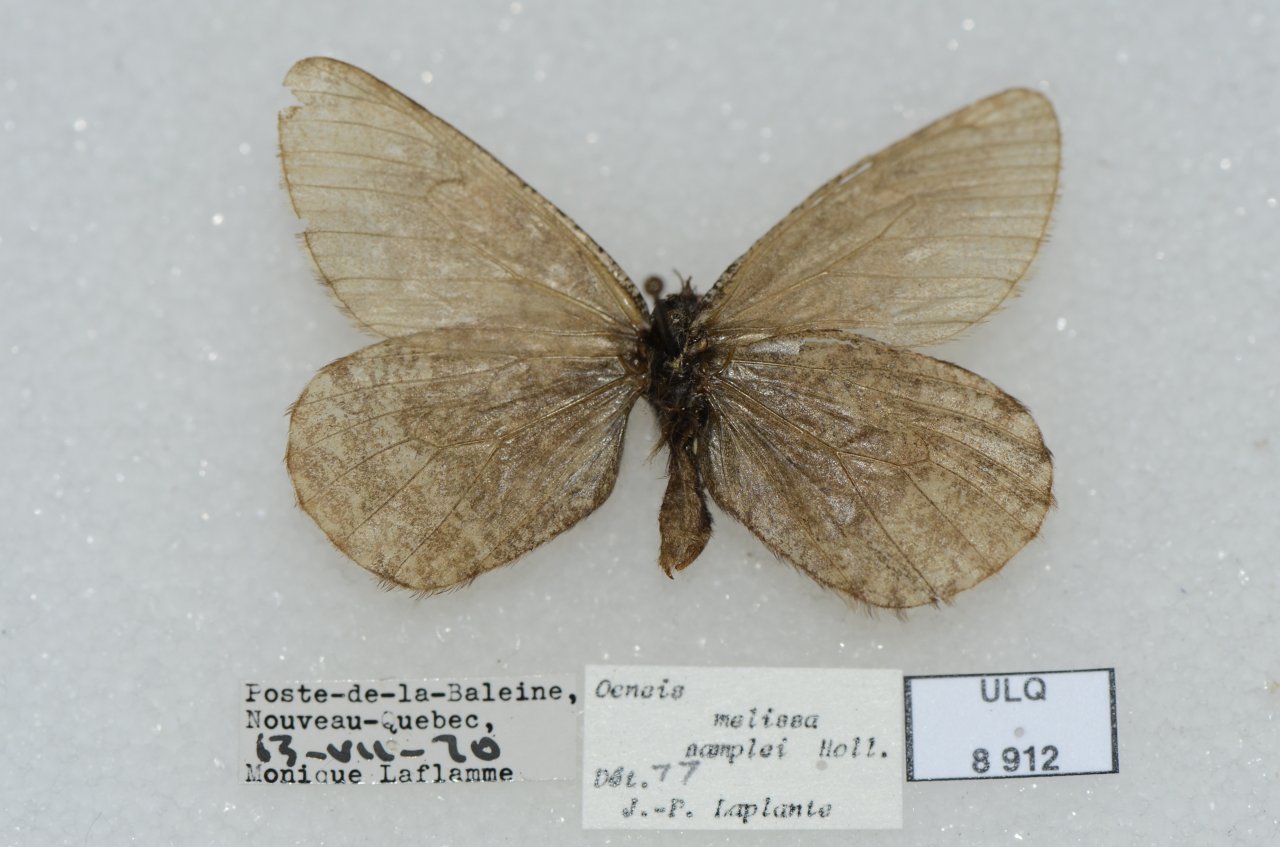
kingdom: Animalia
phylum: Arthropoda
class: Insecta
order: Lepidoptera
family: Nymphalidae
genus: Oeneis
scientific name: Oeneis melissa
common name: Melissa Arctic
